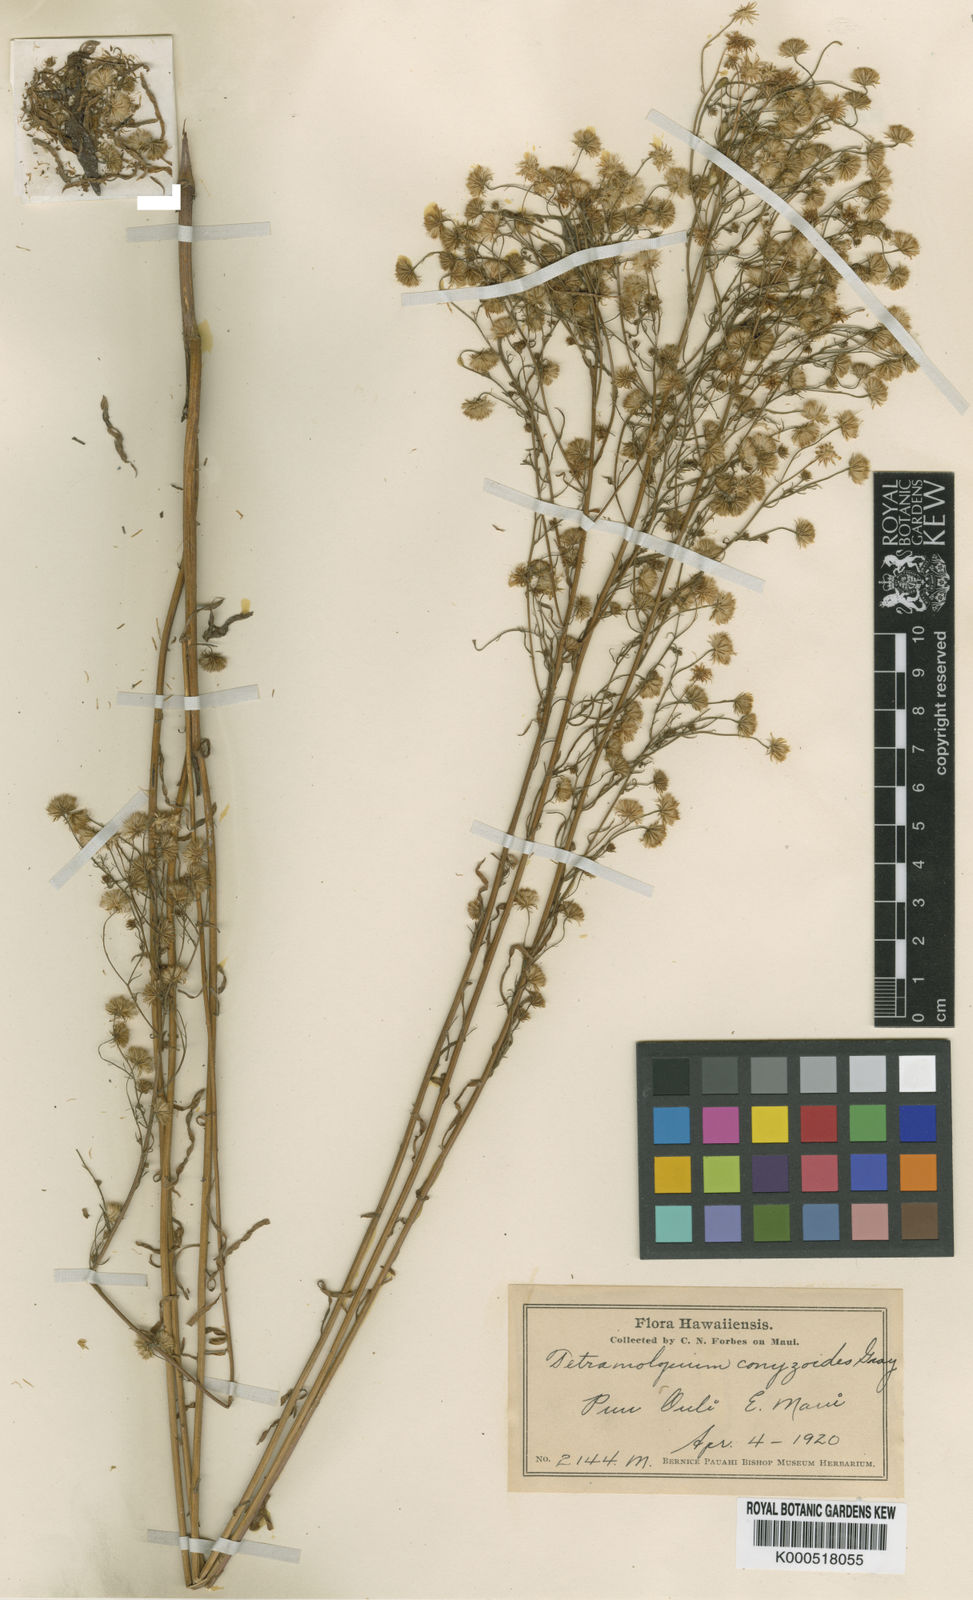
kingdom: Plantae
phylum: Tracheophyta
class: Magnoliopsida
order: Asterales
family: Asteraceae
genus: Tetramolopium
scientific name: Tetramolopium conyzoides
